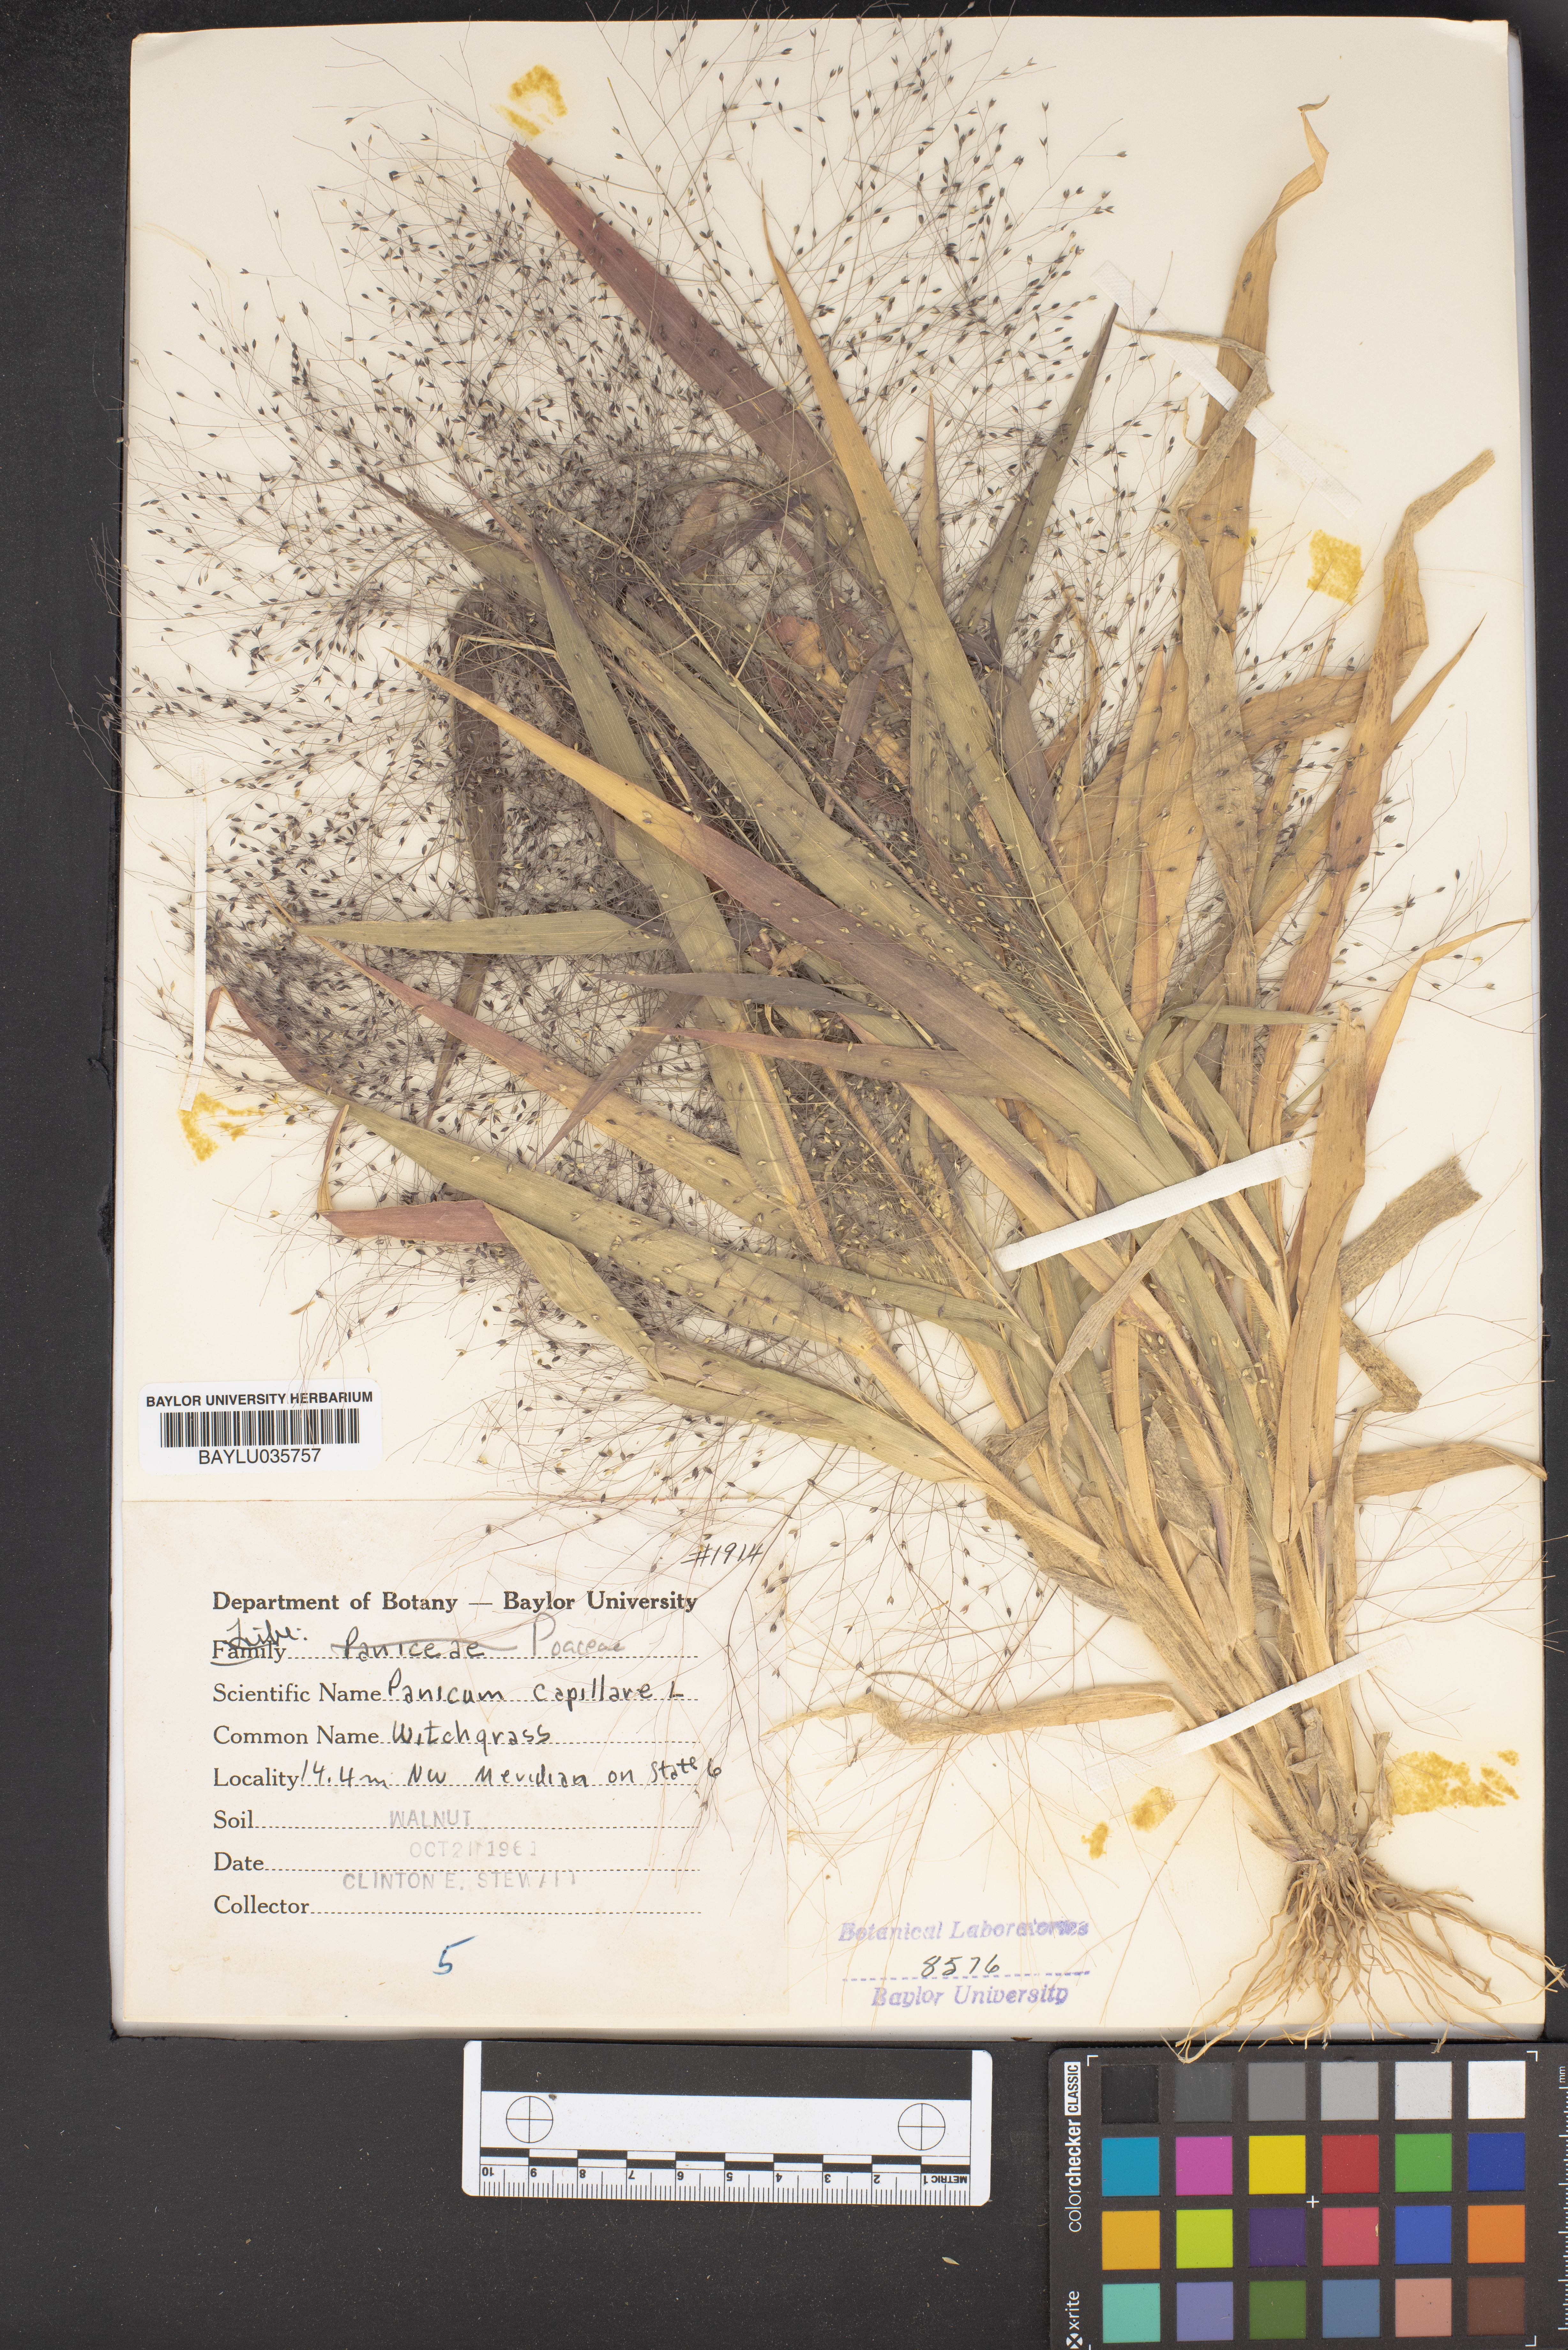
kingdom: Plantae
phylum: Tracheophyta
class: Liliopsida
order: Poales
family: Poaceae
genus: Panicum
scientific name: Panicum capillare
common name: Witch-grass
